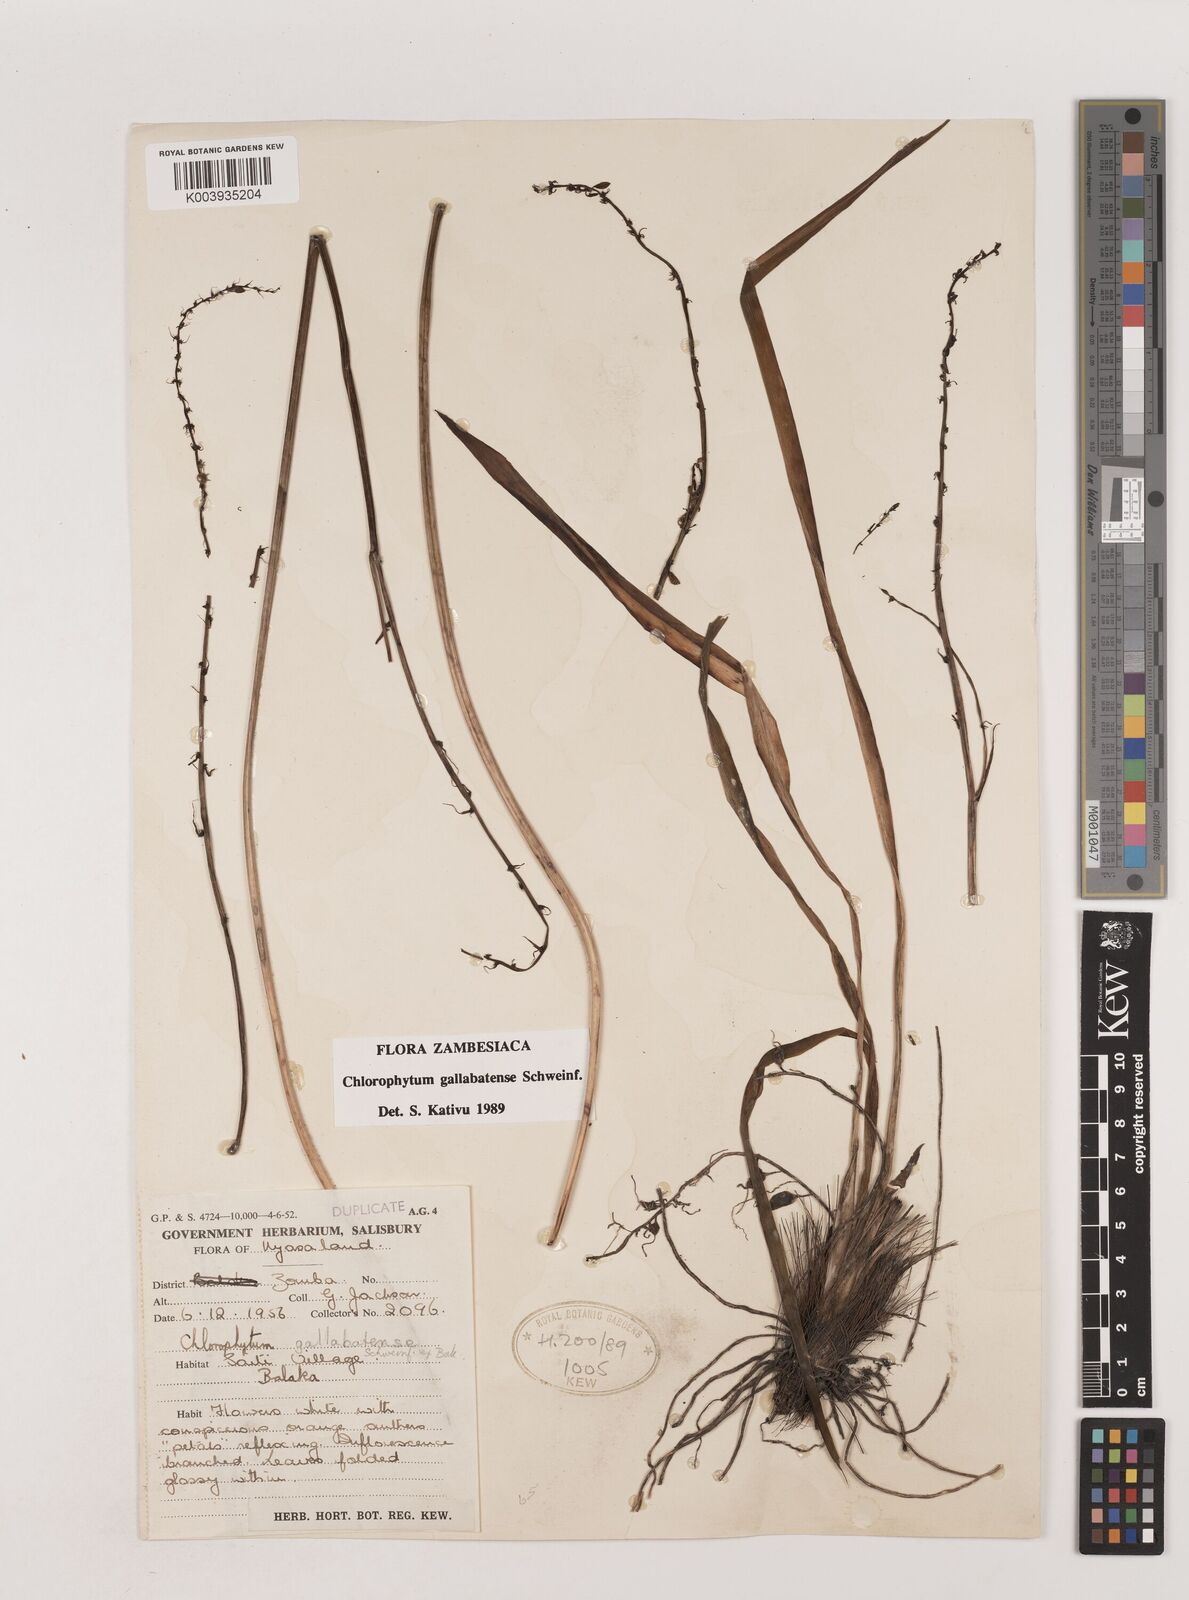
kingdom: Plantae
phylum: Tracheophyta
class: Liliopsida
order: Asparagales
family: Asparagaceae
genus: Chlorophytum
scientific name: Chlorophytum gallabatense
